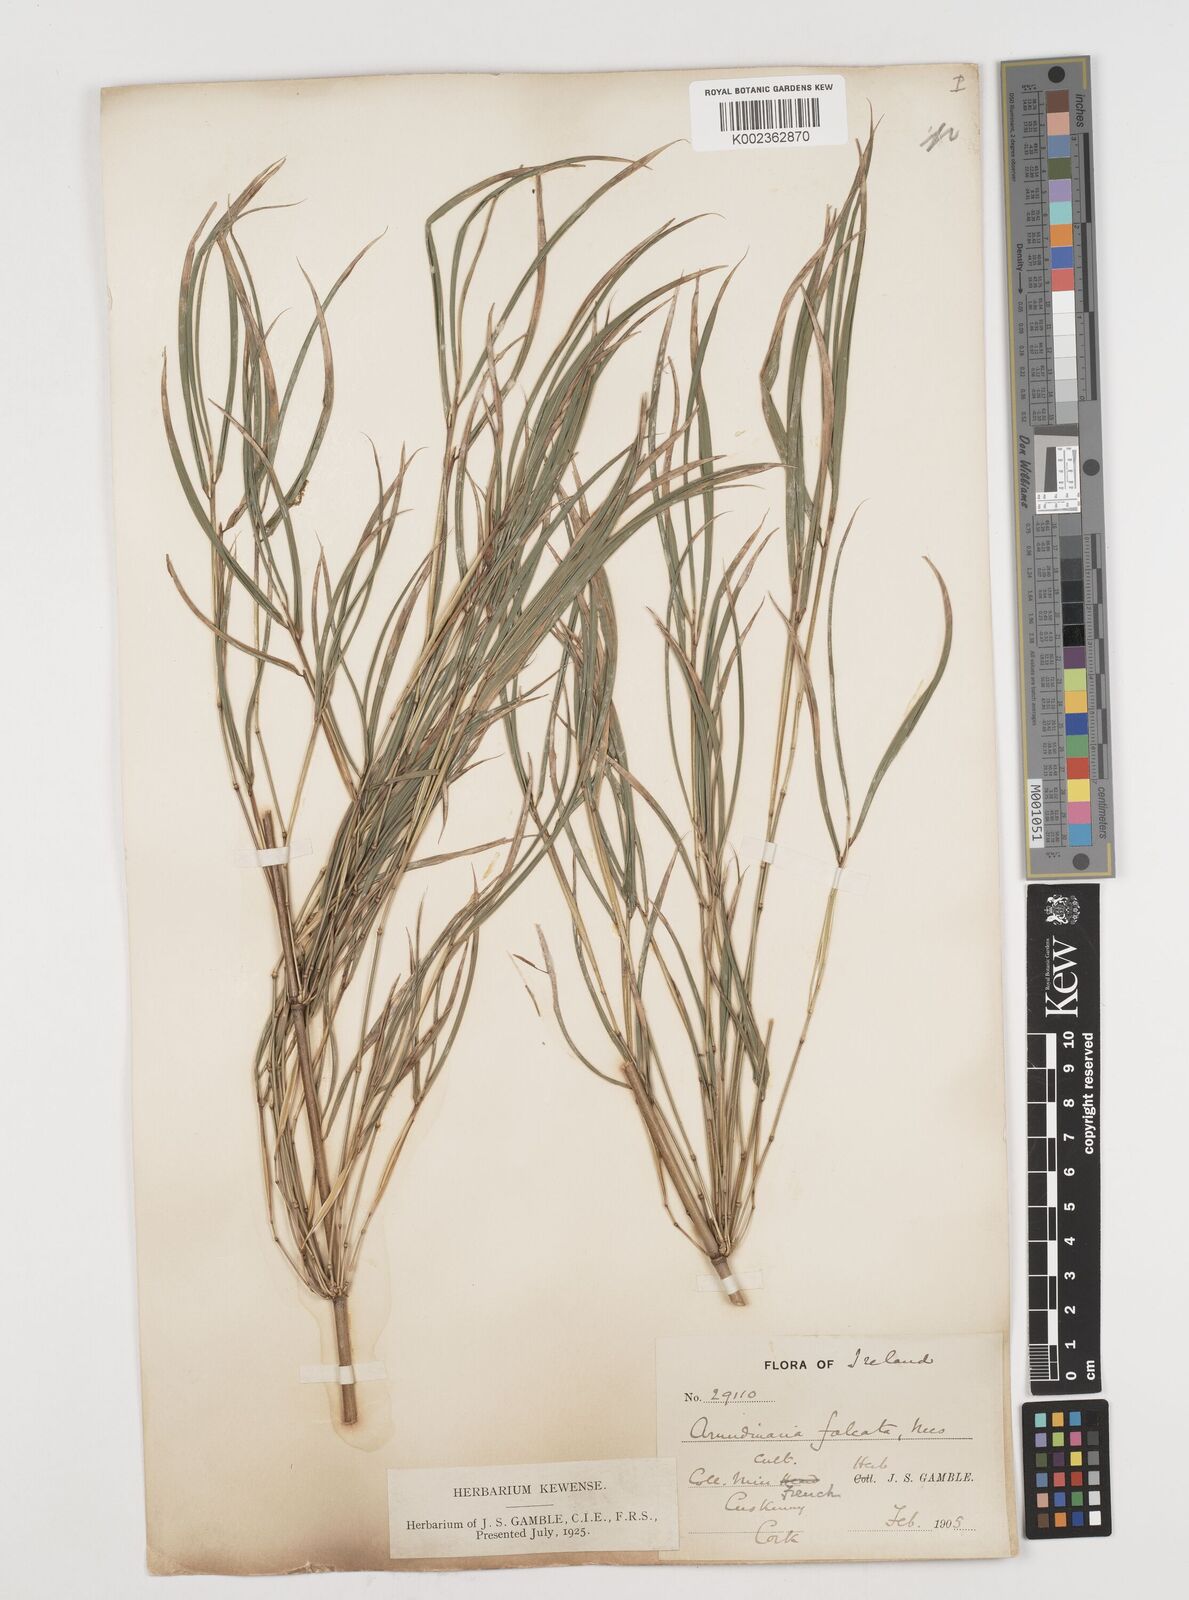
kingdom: Plantae
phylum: Tracheophyta
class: Liliopsida
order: Poales
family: Poaceae
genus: Drepanostachyum
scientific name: Drepanostachyum falcatum
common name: Himalayan bamboo
